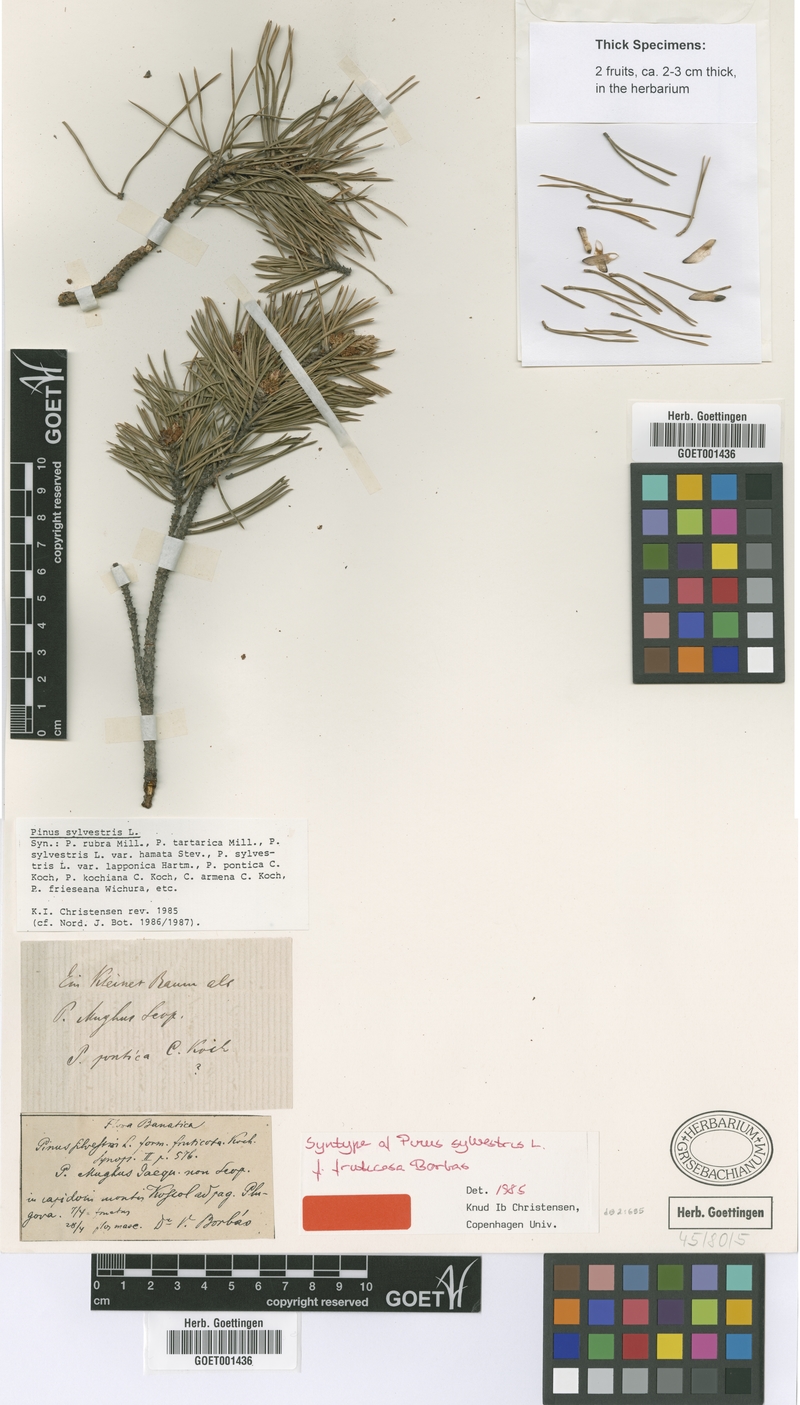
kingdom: Plantae
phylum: Tracheophyta
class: Pinopsida
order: Pinales
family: Pinaceae
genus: Pinus
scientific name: Pinus sylvestris
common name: Scots pine
